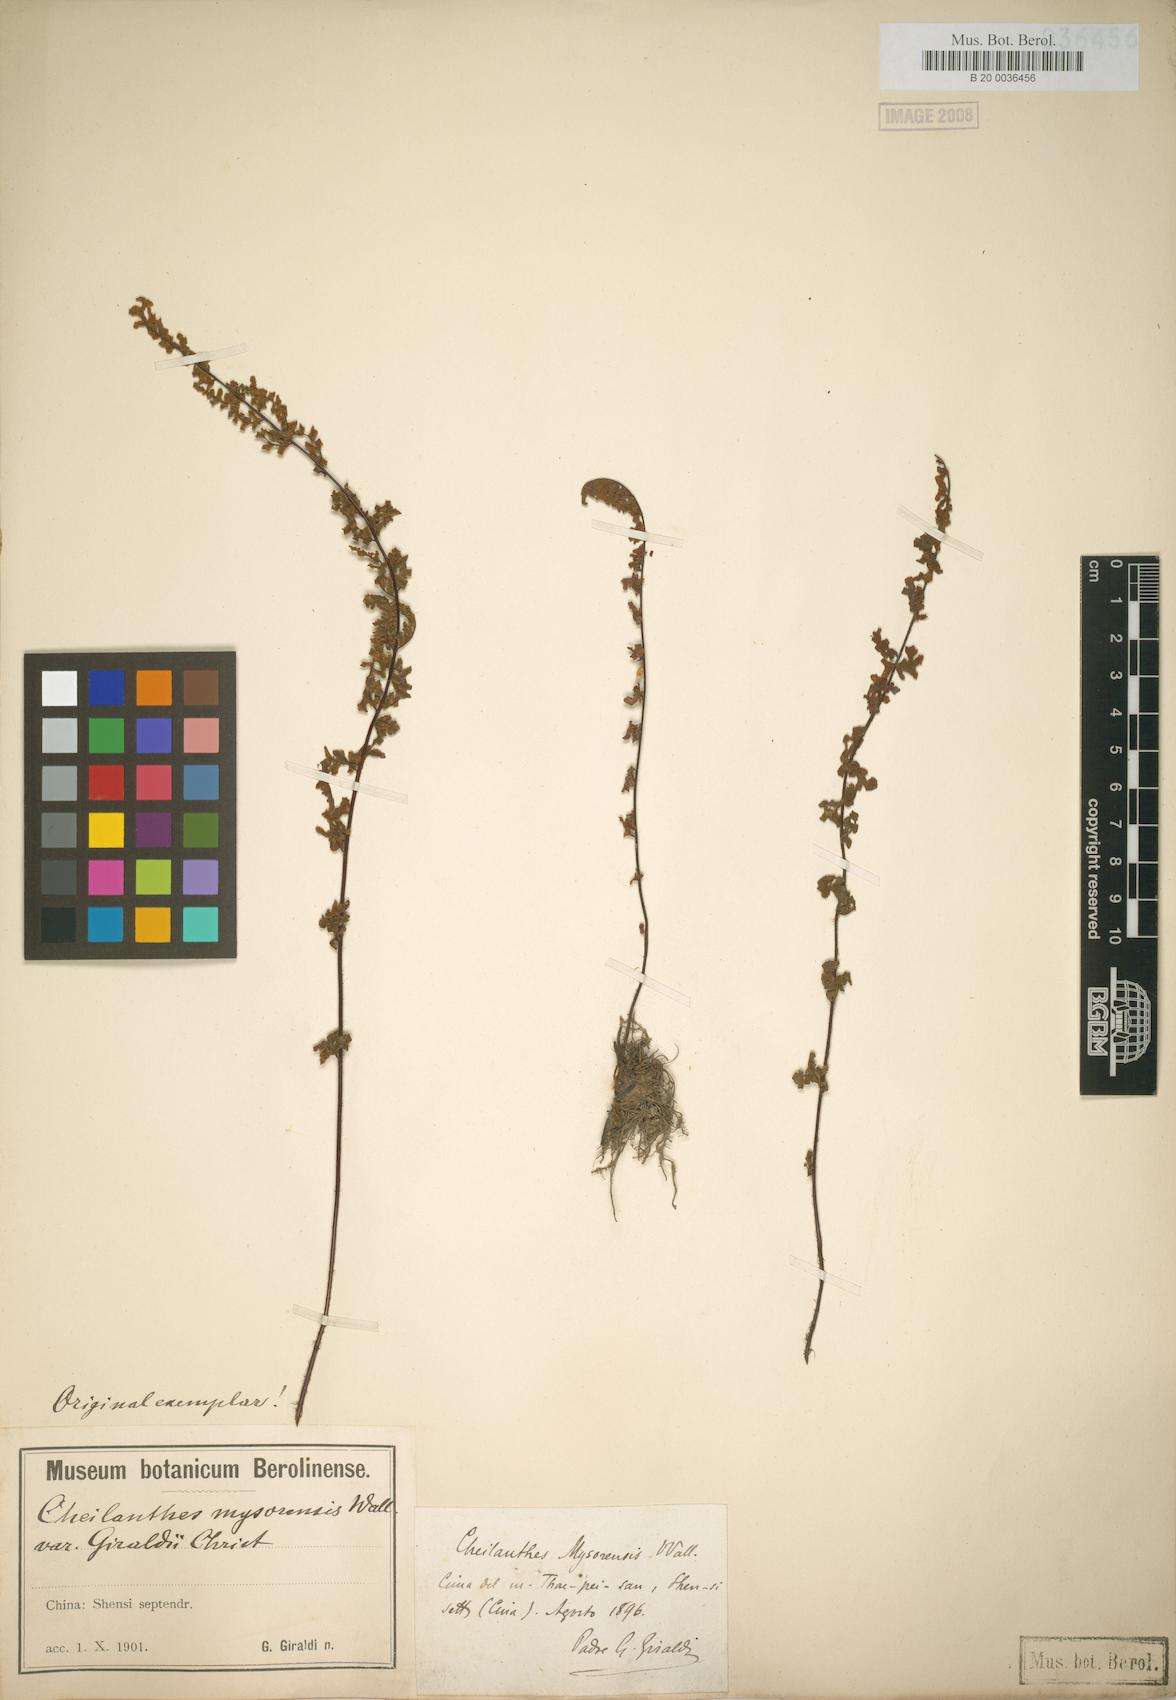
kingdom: Plantae
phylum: Tracheophyta
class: Polypodiopsida
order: Polypodiales
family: Pteridaceae
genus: Oeosporangium
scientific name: Oeosporangium chusanum
